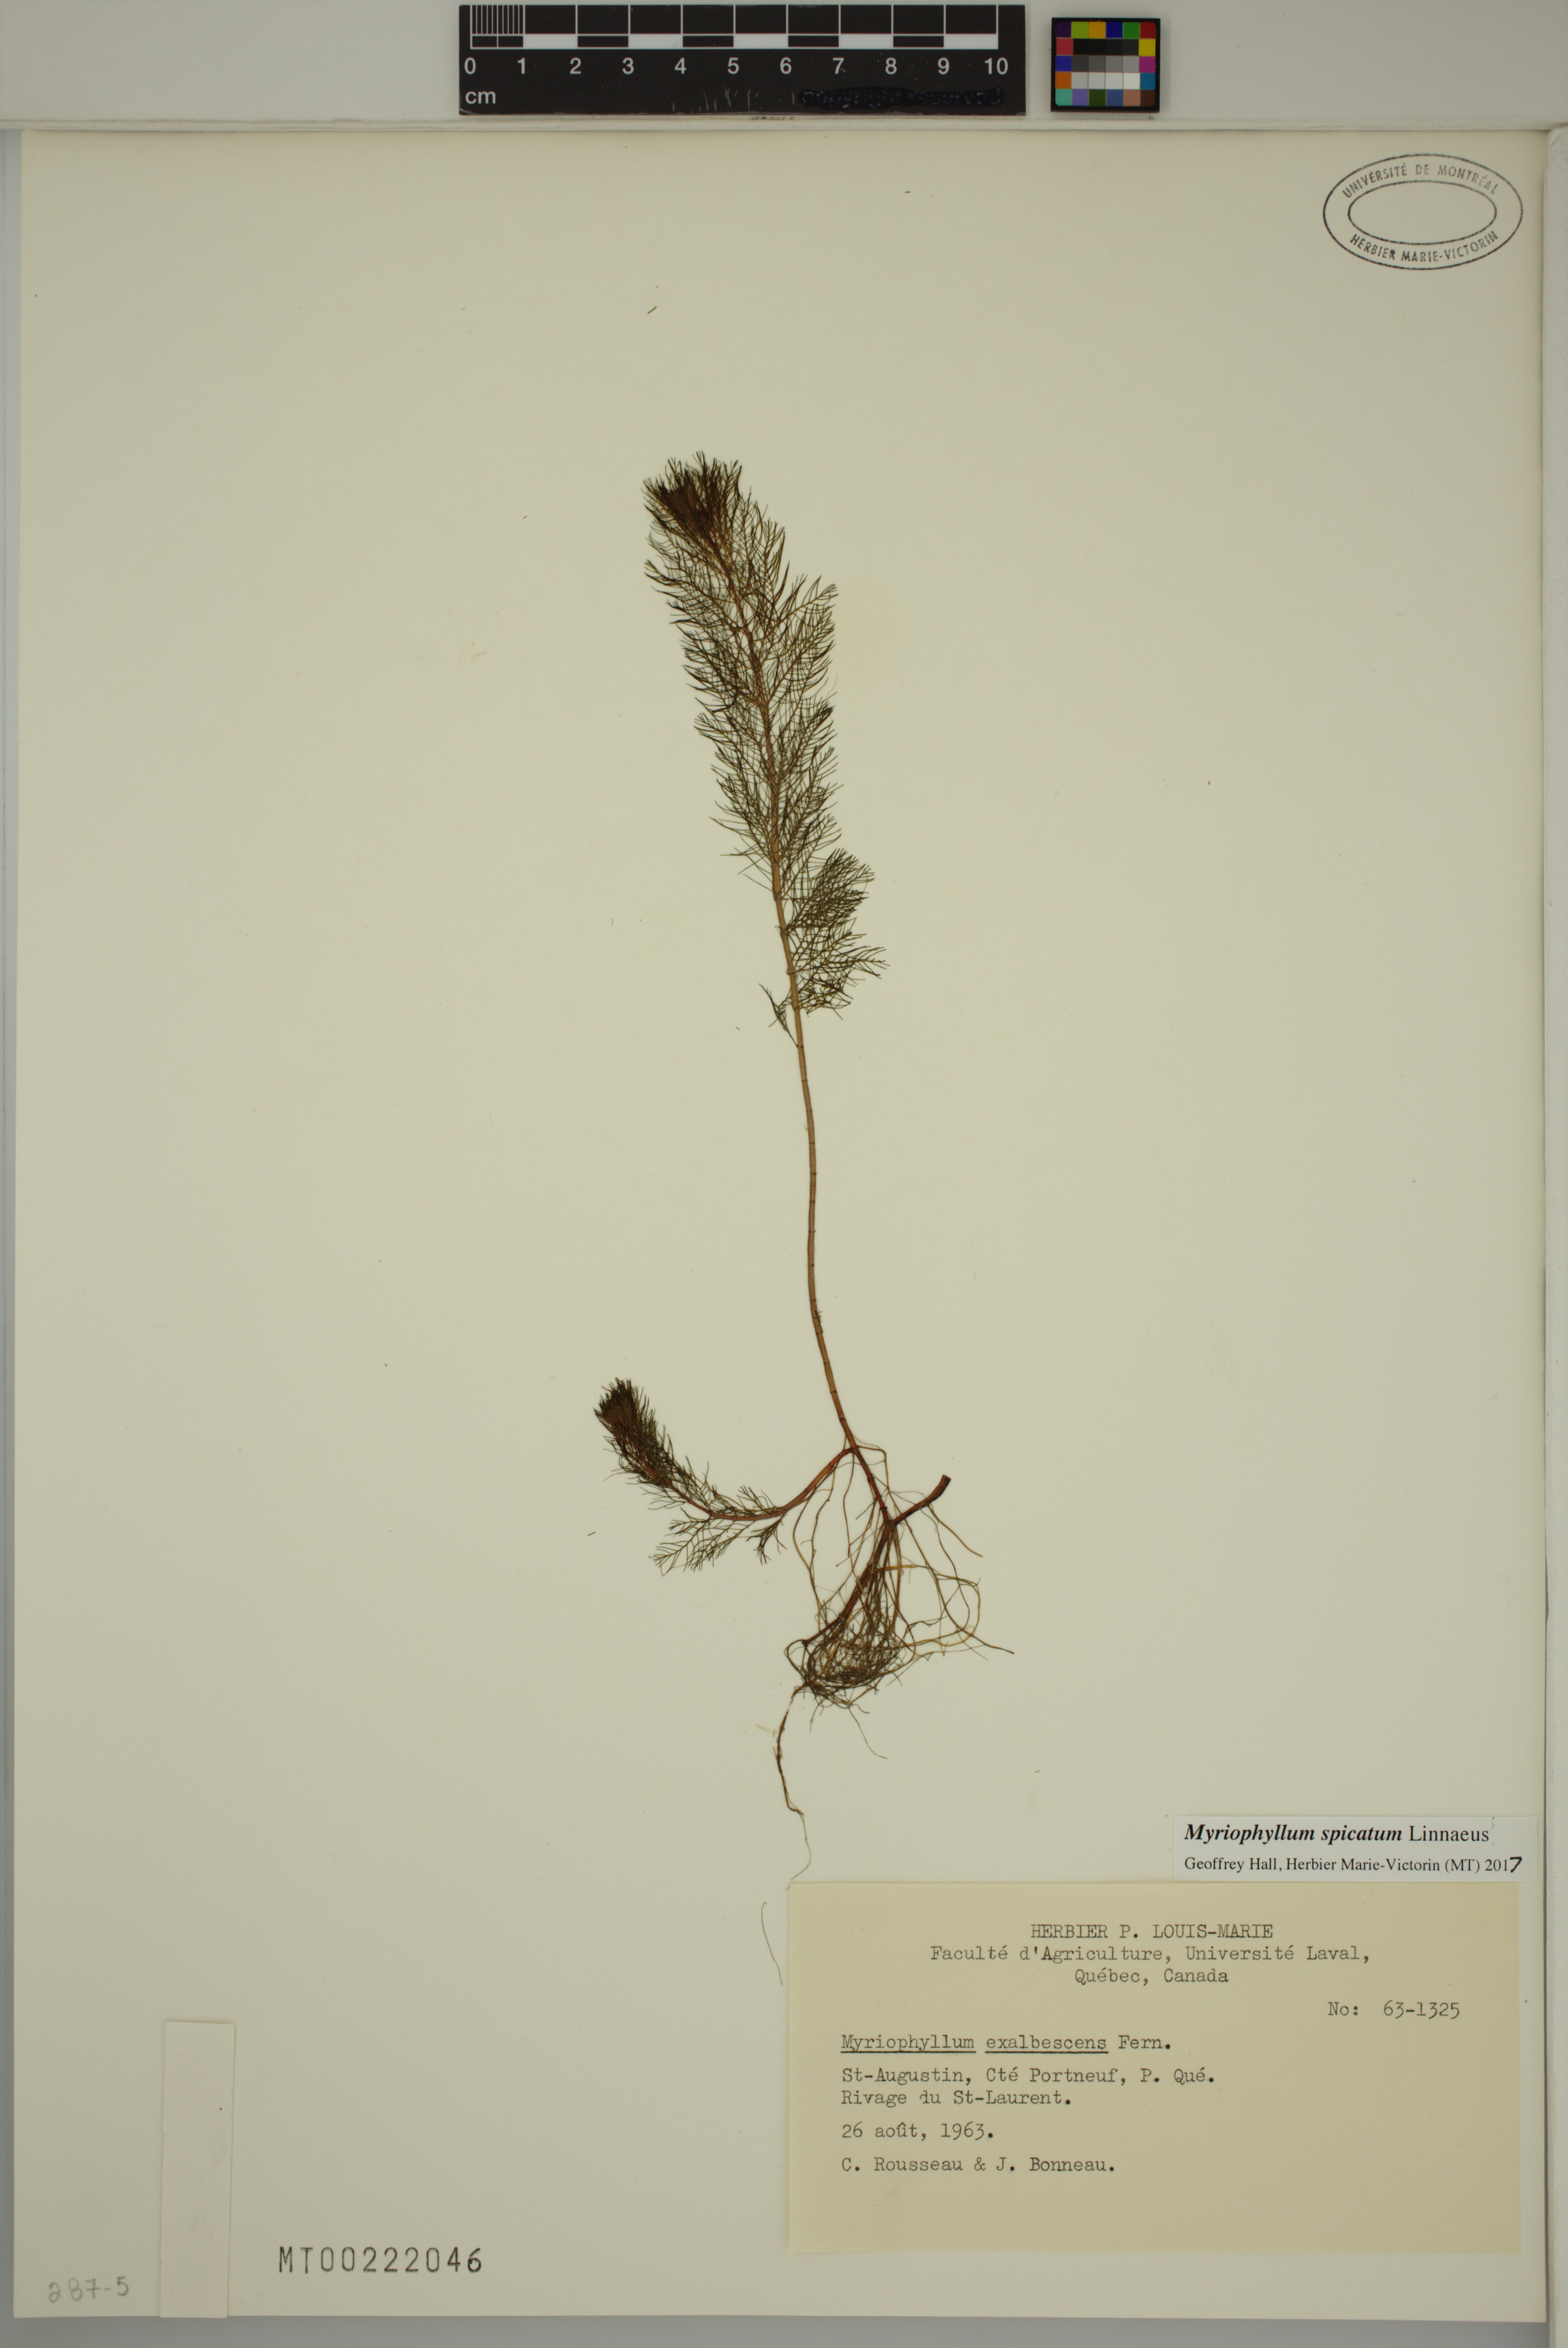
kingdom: Plantae
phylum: Tracheophyta
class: Magnoliopsida
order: Saxifragales
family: Haloragaceae
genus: Myriophyllum
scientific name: Myriophyllum spicatum
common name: Spiked water-milfoil
